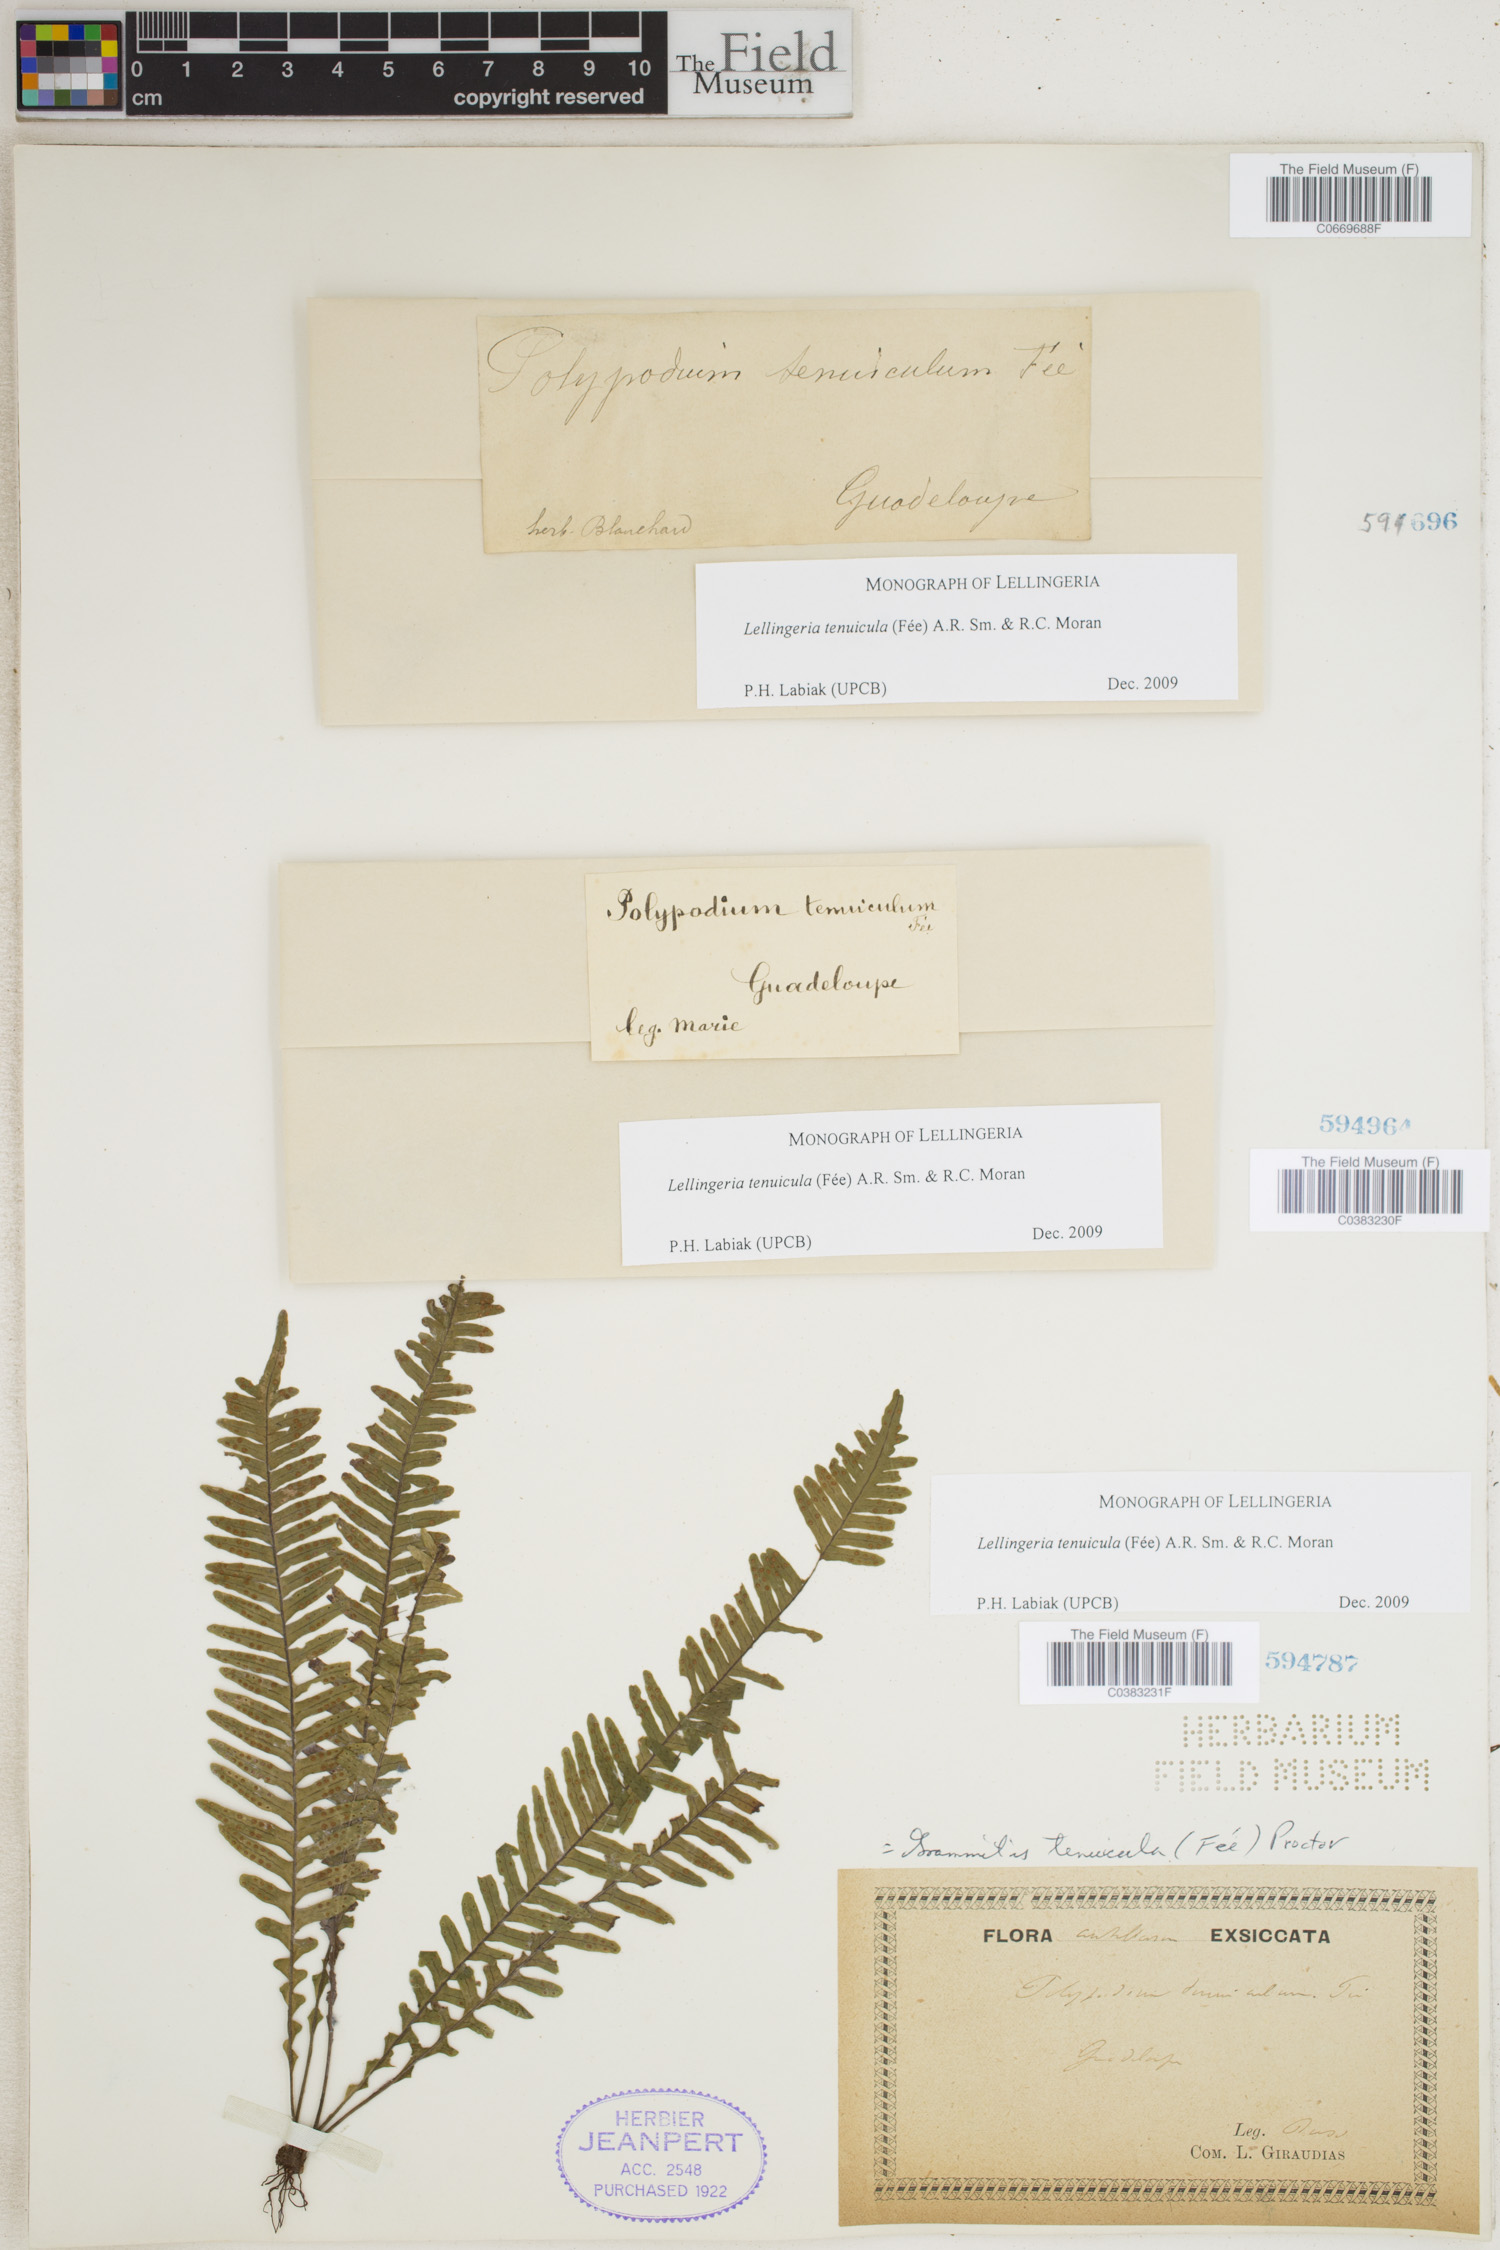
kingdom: Plantae
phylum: Tracheophyta
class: Polypodiopsida
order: Polypodiales
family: Polypodiaceae
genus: Lellingeria
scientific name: Lellingeria tenuicula
